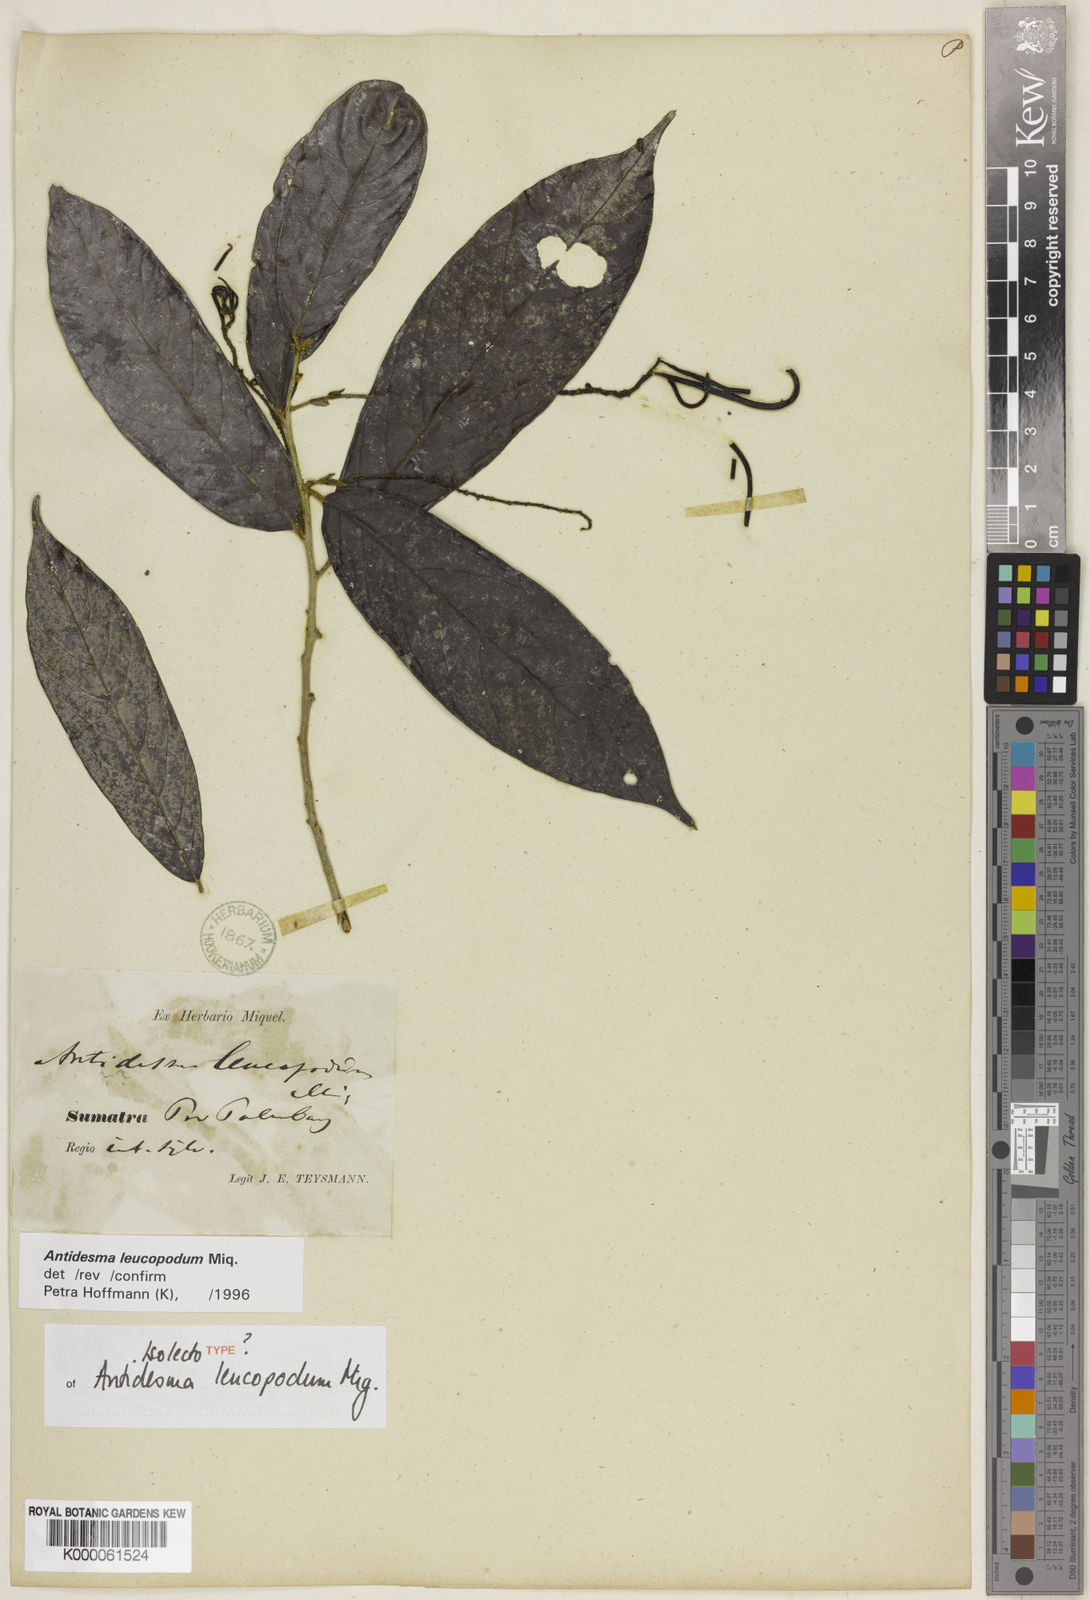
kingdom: Plantae
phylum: Tracheophyta
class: Magnoliopsida
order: Malpighiales
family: Phyllanthaceae
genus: Antidesma
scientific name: Antidesma leucopodum
